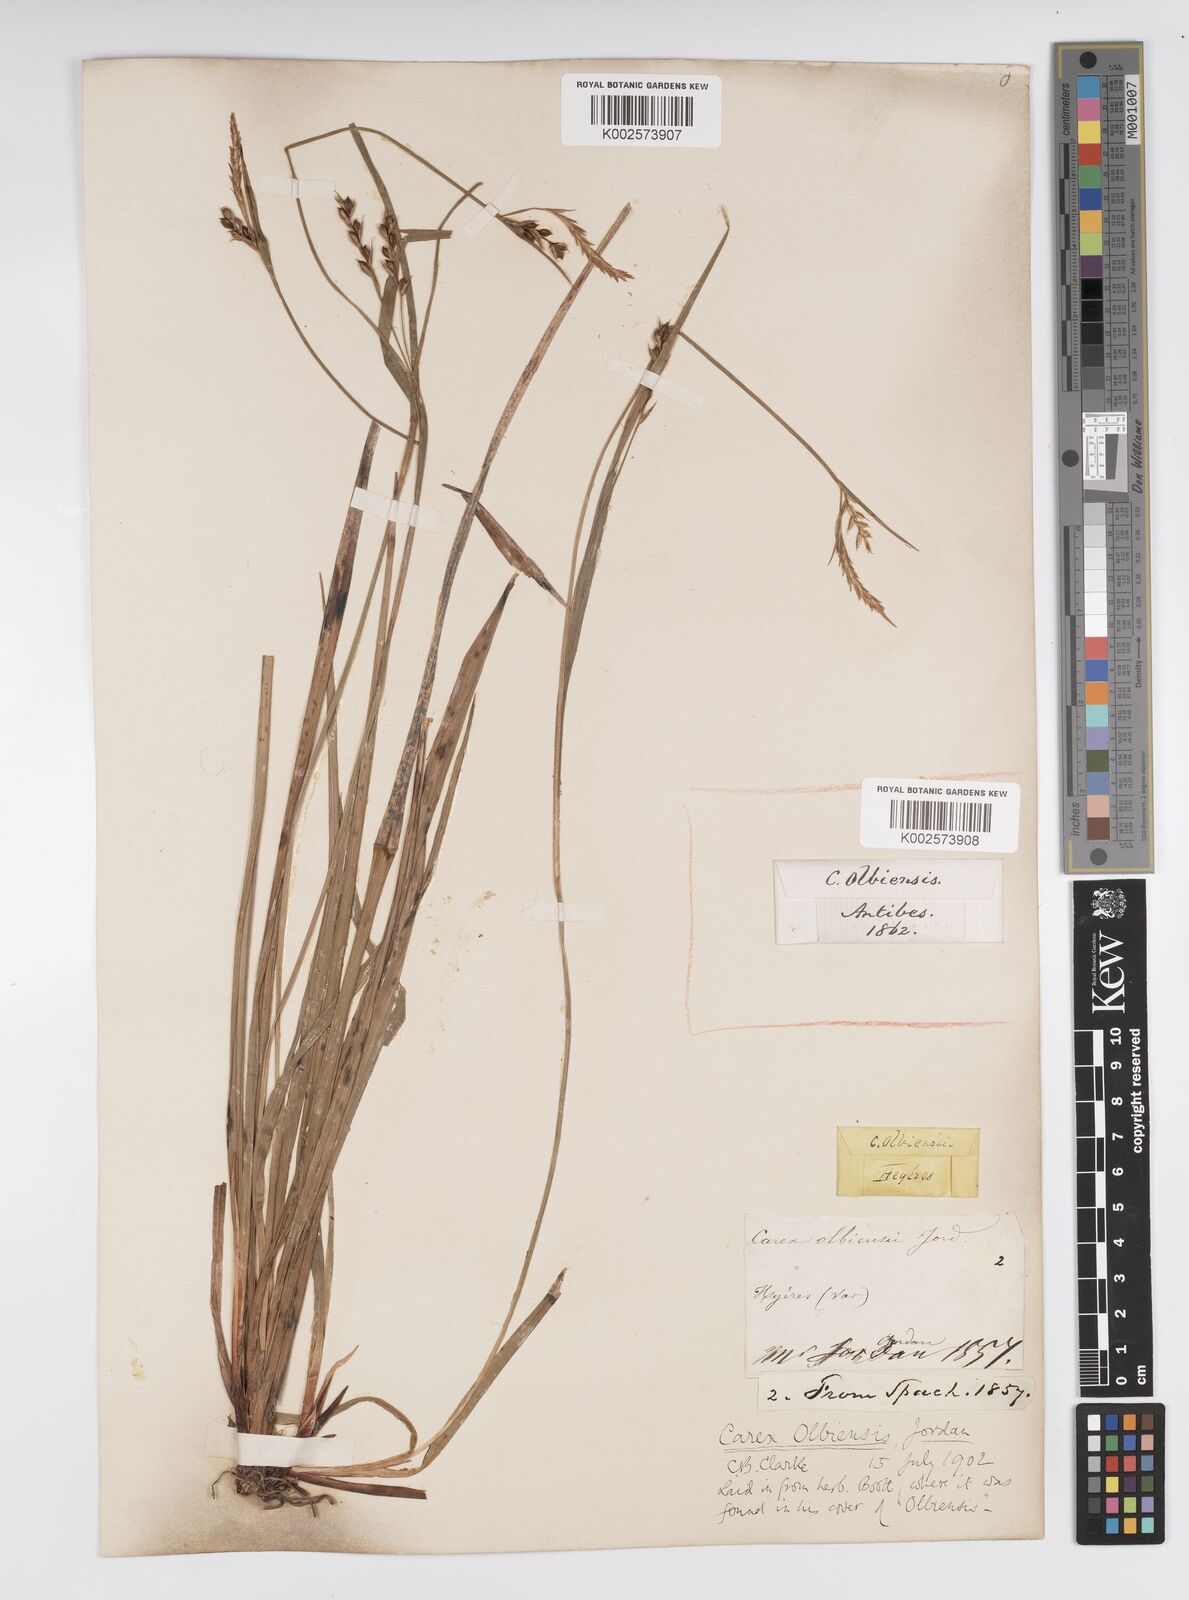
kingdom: Plantae
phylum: Tracheophyta
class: Liliopsida
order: Poales
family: Cyperaceae
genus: Carex
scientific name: Carex olbiensis
